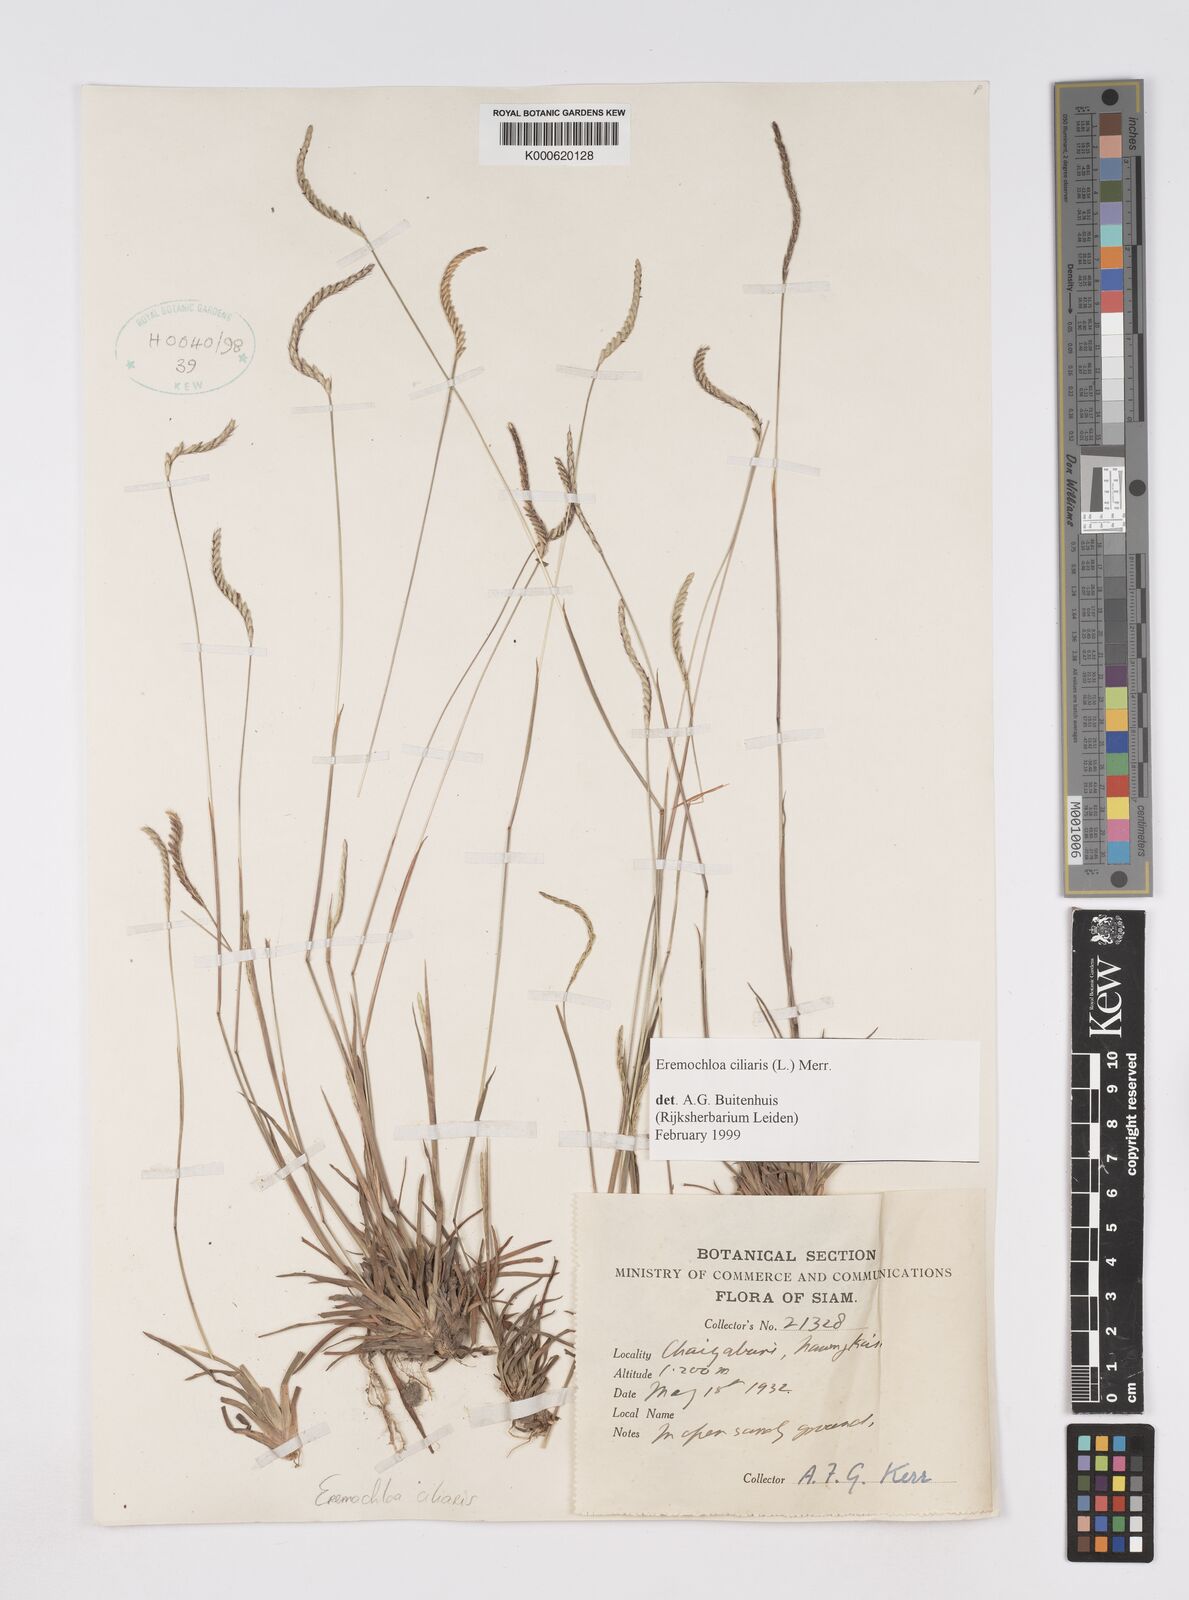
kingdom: Plantae
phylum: Tracheophyta
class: Liliopsida
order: Poales
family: Poaceae
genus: Eremochloa
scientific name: Eremochloa ciliaris
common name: Fringed centipede grass
